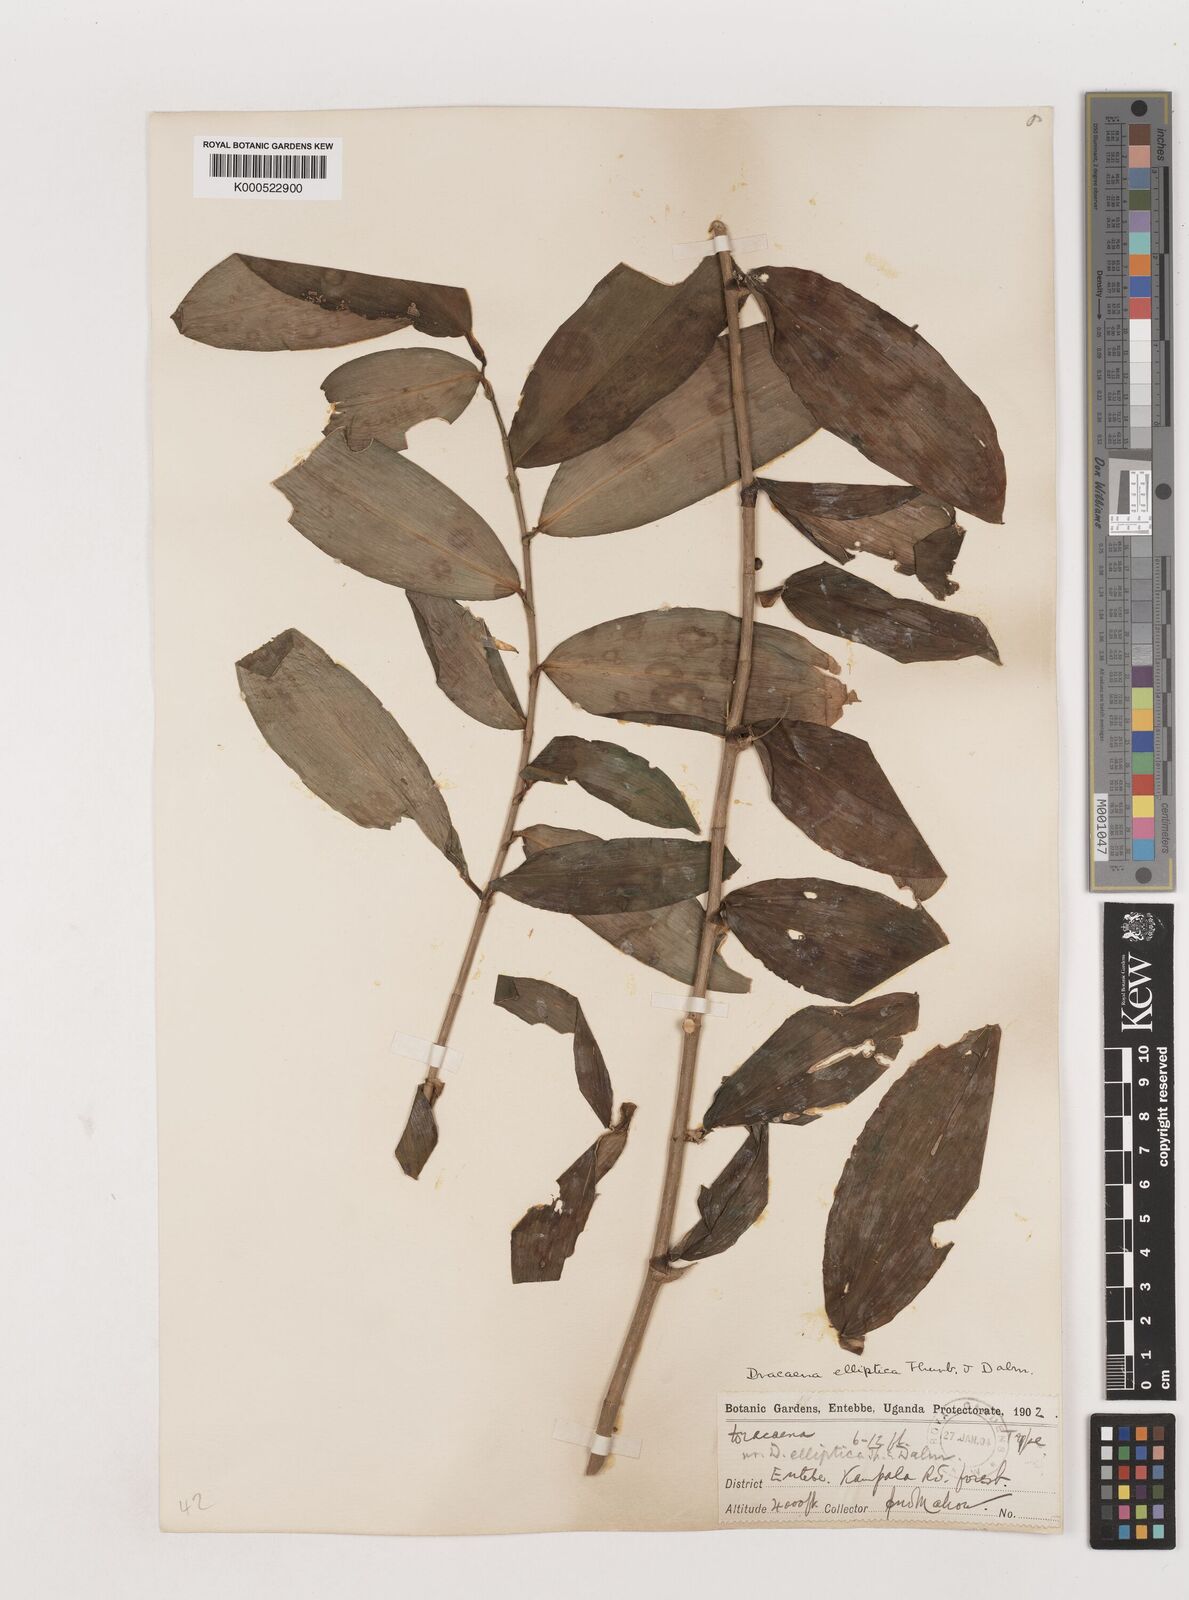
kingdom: Plantae
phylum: Tracheophyta
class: Liliopsida
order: Asparagales
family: Asparagaceae
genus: Dracaena
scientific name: Dracaena laxissima
